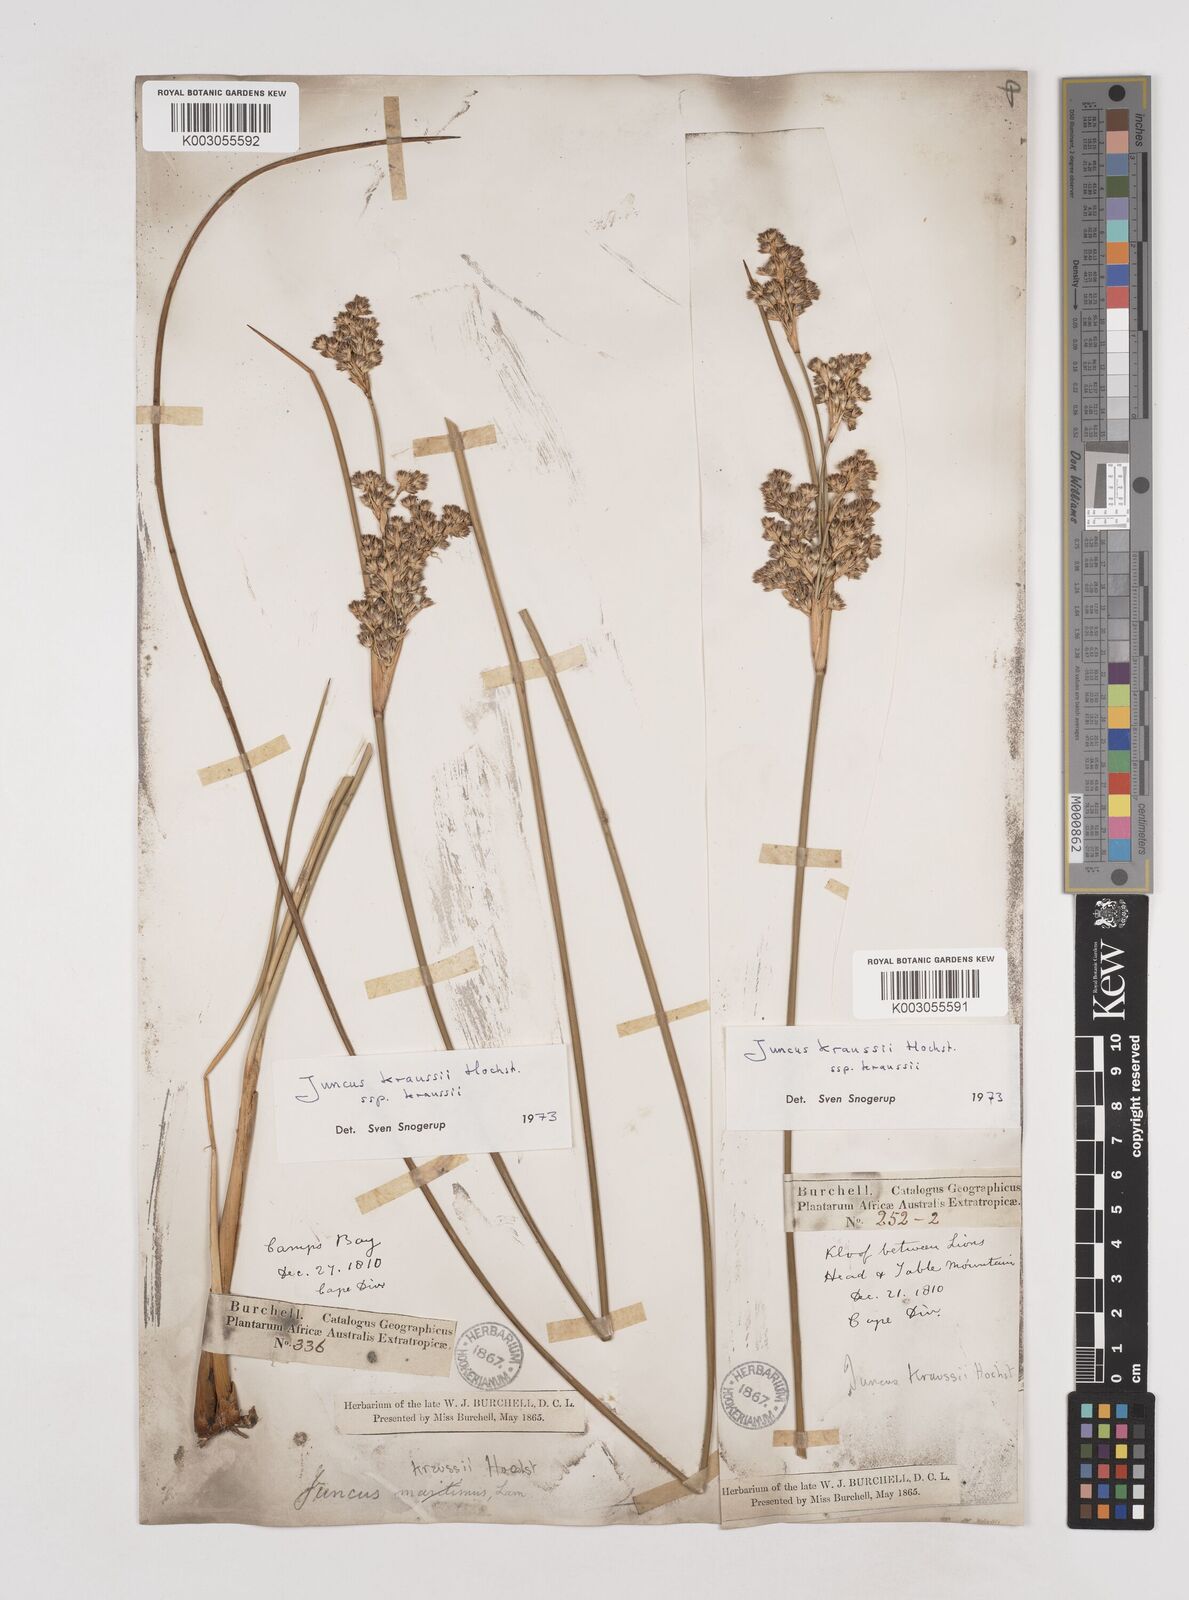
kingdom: Plantae
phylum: Tracheophyta
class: Liliopsida
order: Poales
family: Juncaceae
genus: Juncus
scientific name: Juncus kraussii
